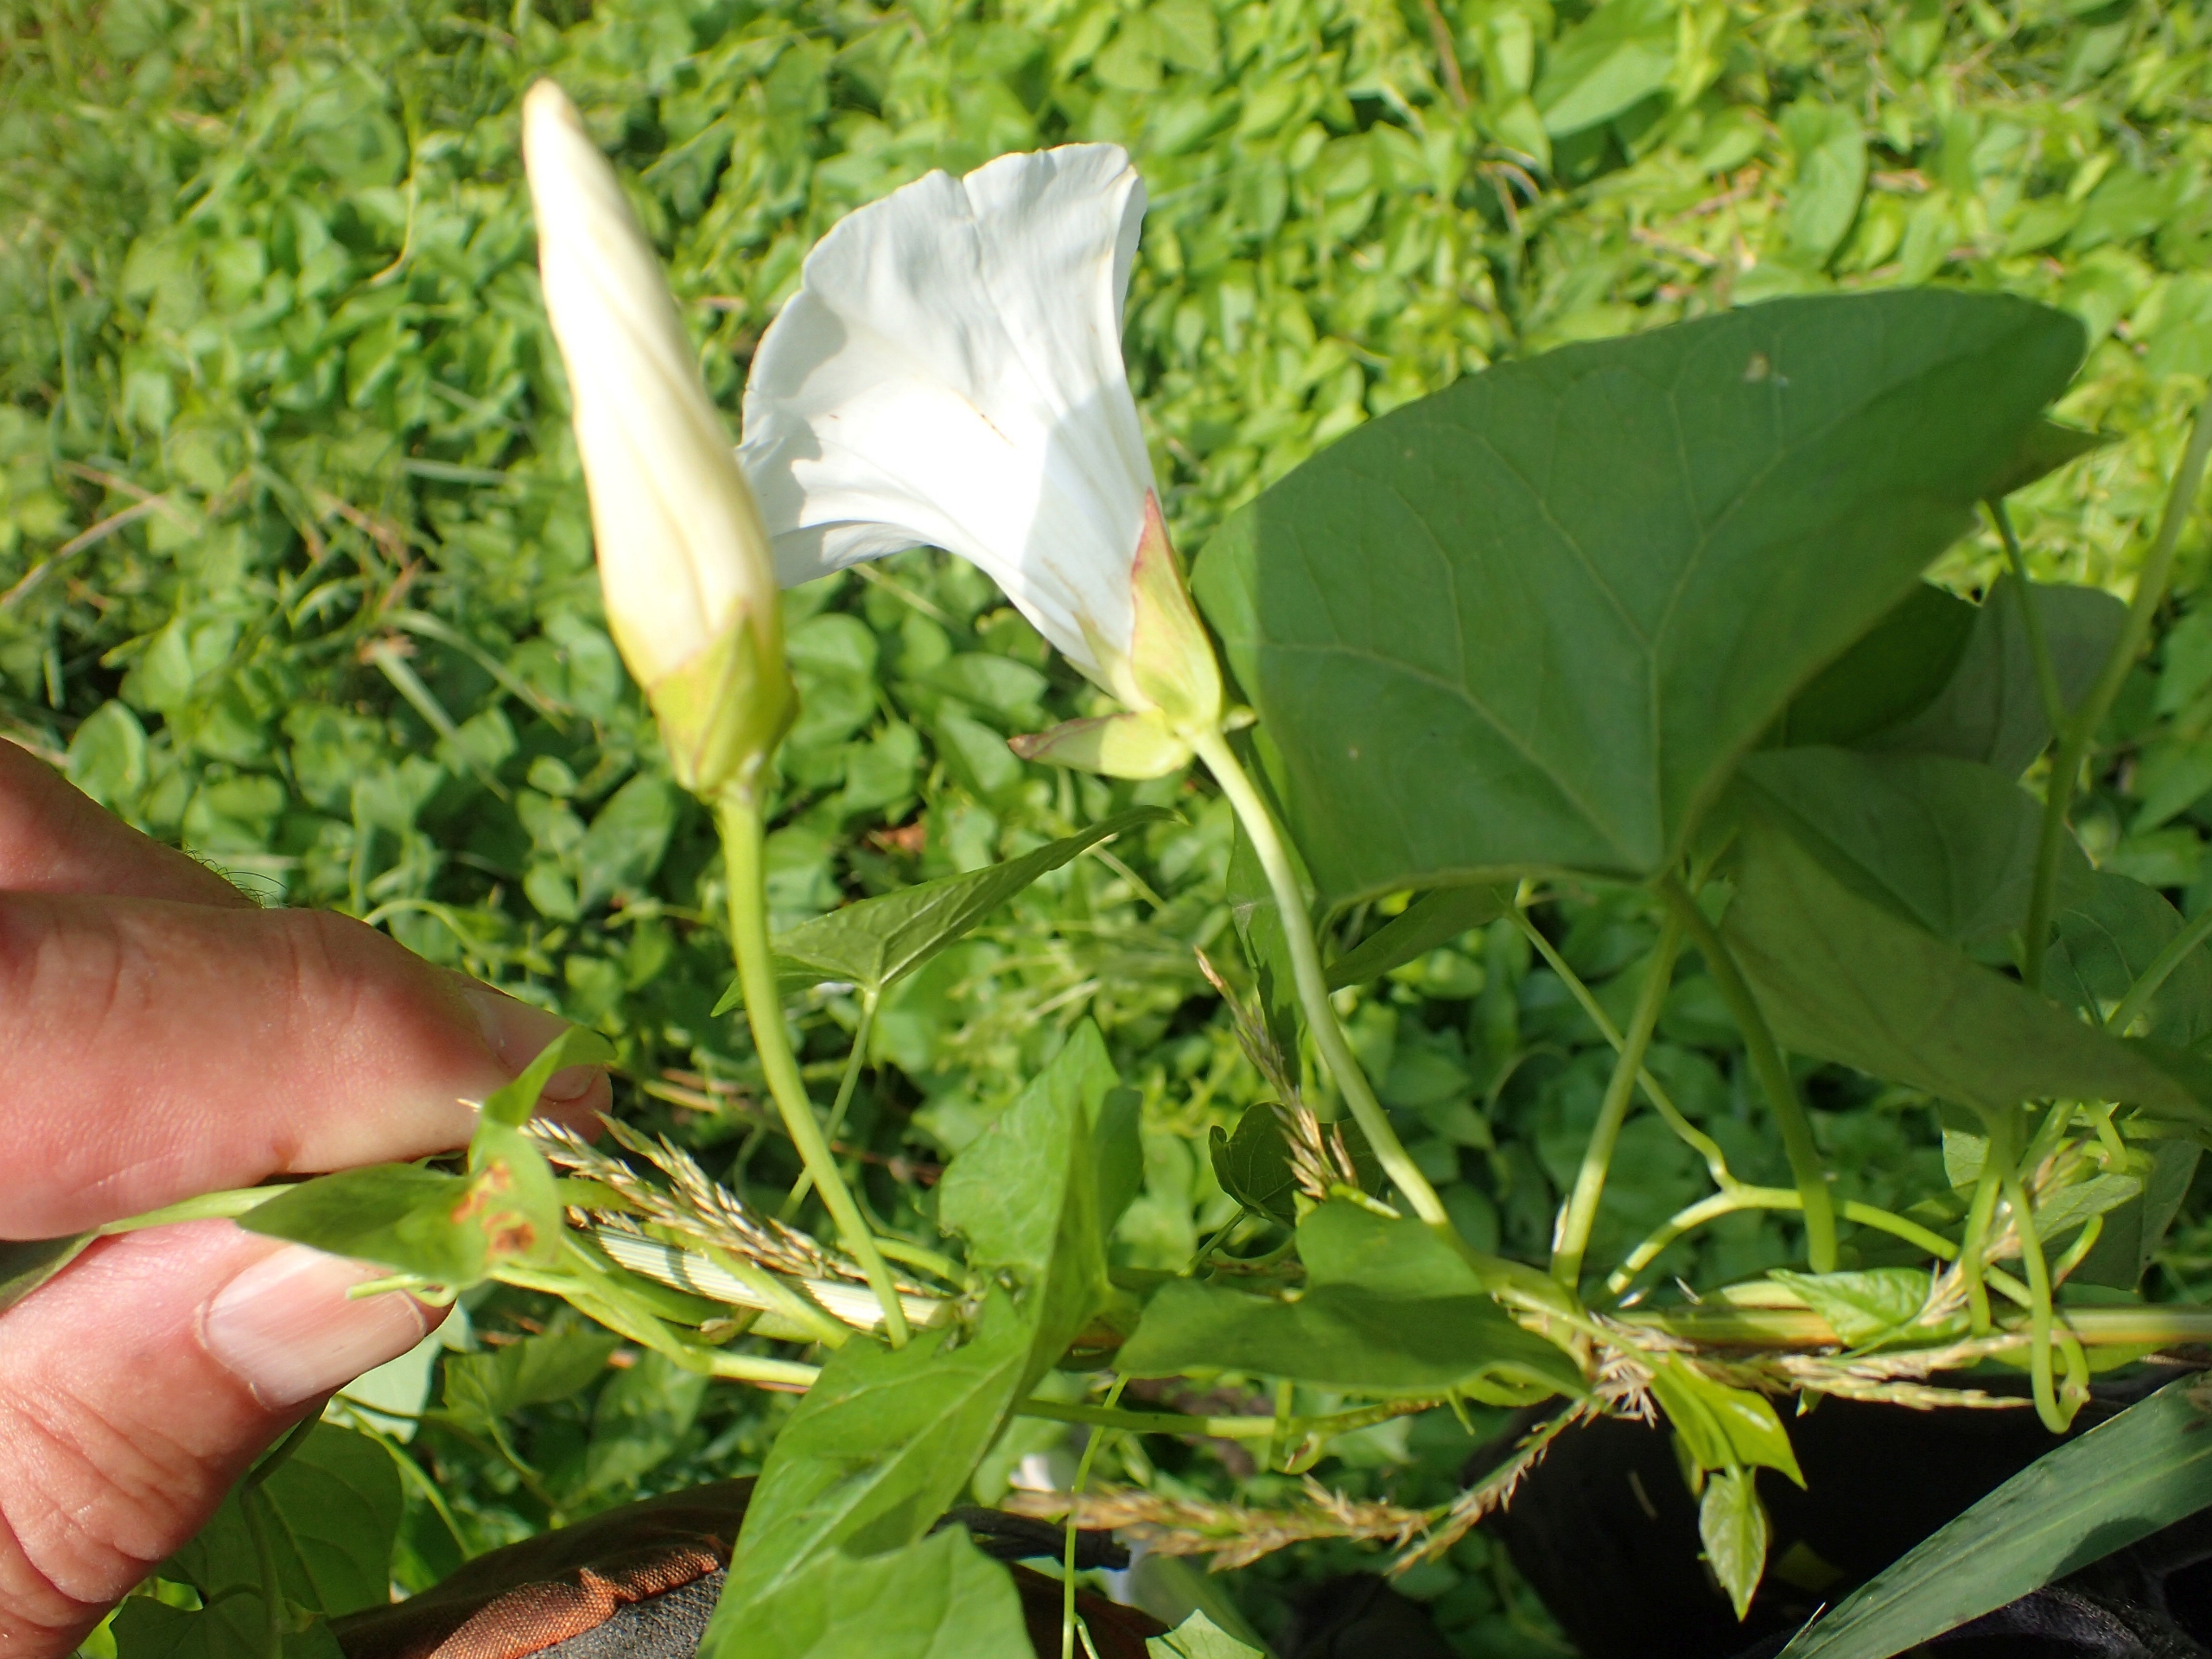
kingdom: Plantae
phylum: Tracheophyta
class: Magnoliopsida
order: Solanales
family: Convolvulaceae
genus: Calystegia
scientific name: Calystegia sepium
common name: Gærde-snerle
